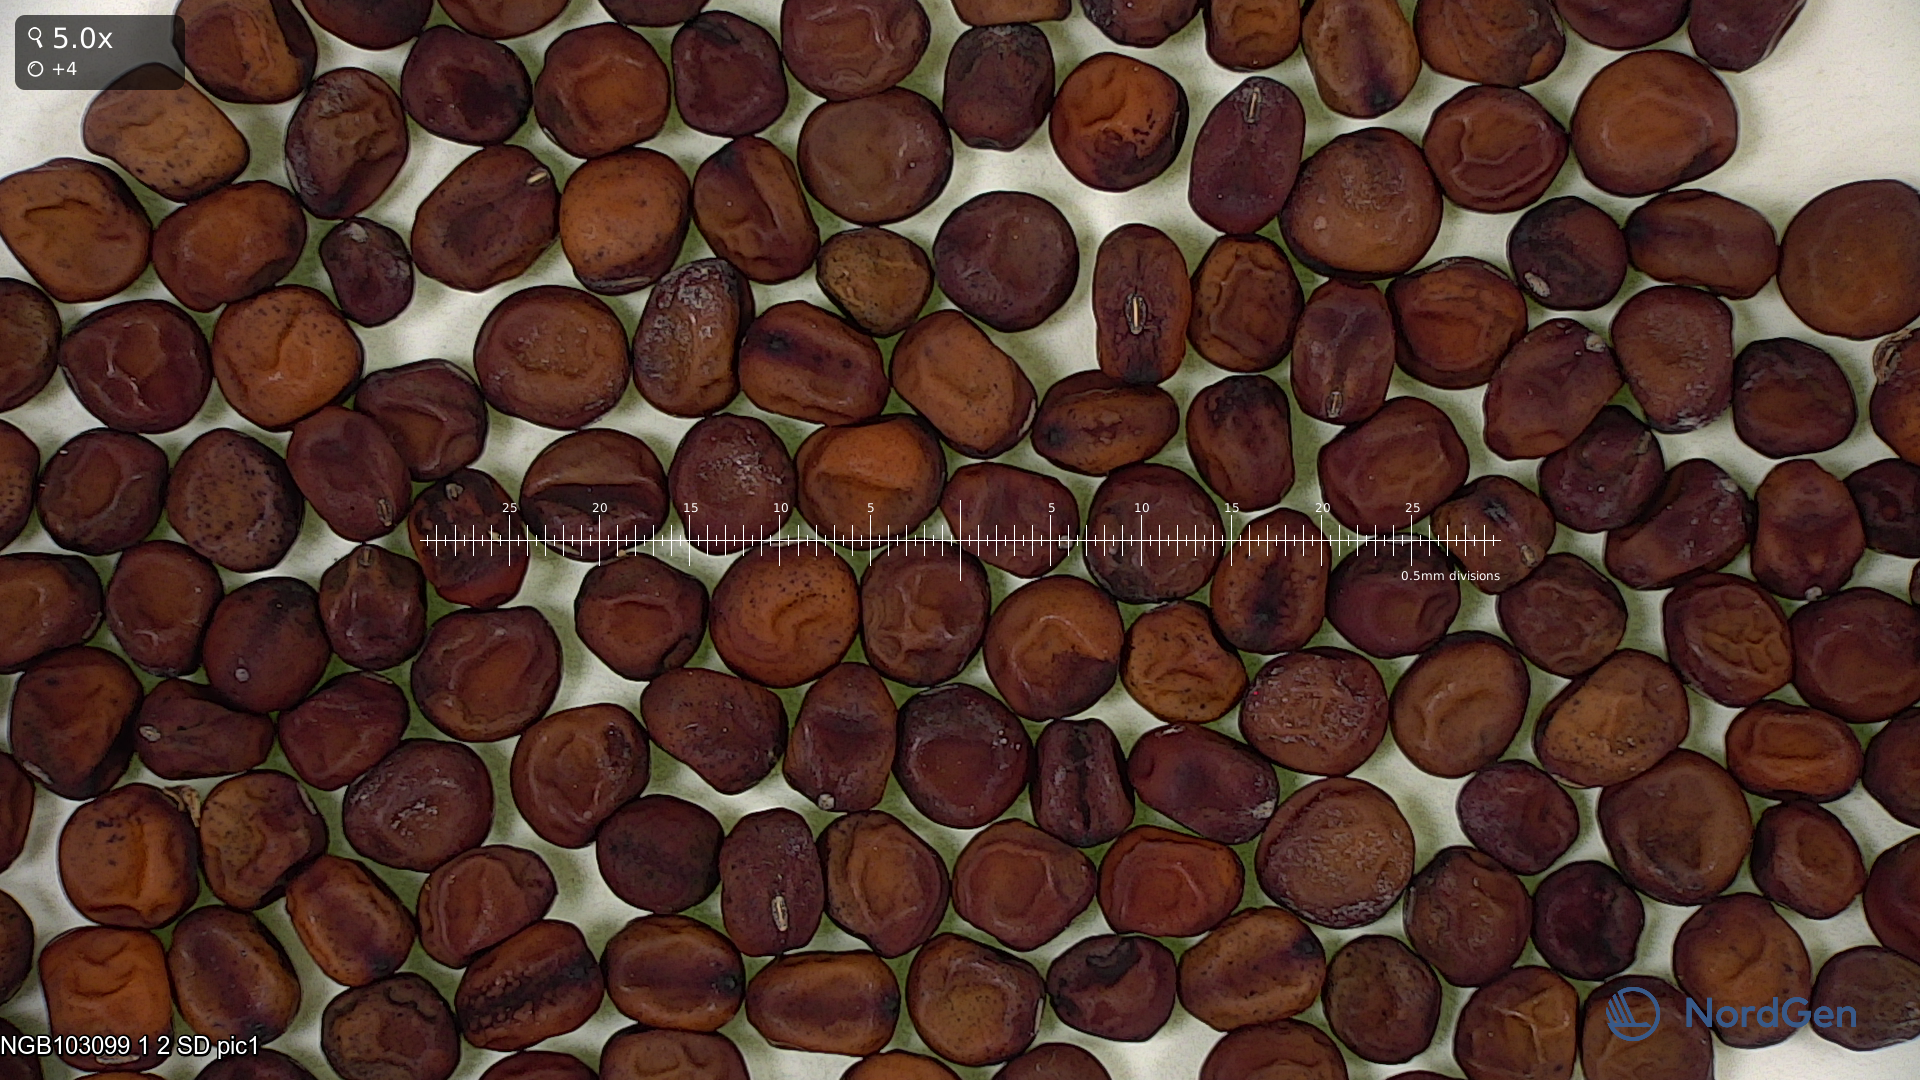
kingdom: Plantae
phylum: Tracheophyta
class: Magnoliopsida
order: Fabales
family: Fabaceae
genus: Lathyrus
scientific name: Lathyrus oleraceus
